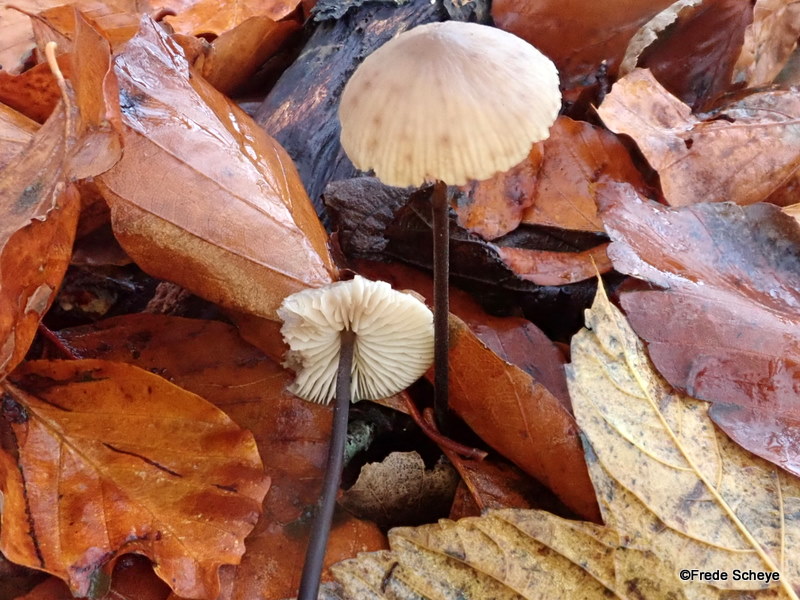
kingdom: Fungi
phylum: Basidiomycota
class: Agaricomycetes
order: Agaricales
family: Omphalotaceae
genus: Mycetinis
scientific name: Mycetinis alliaceus
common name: stor løghat
